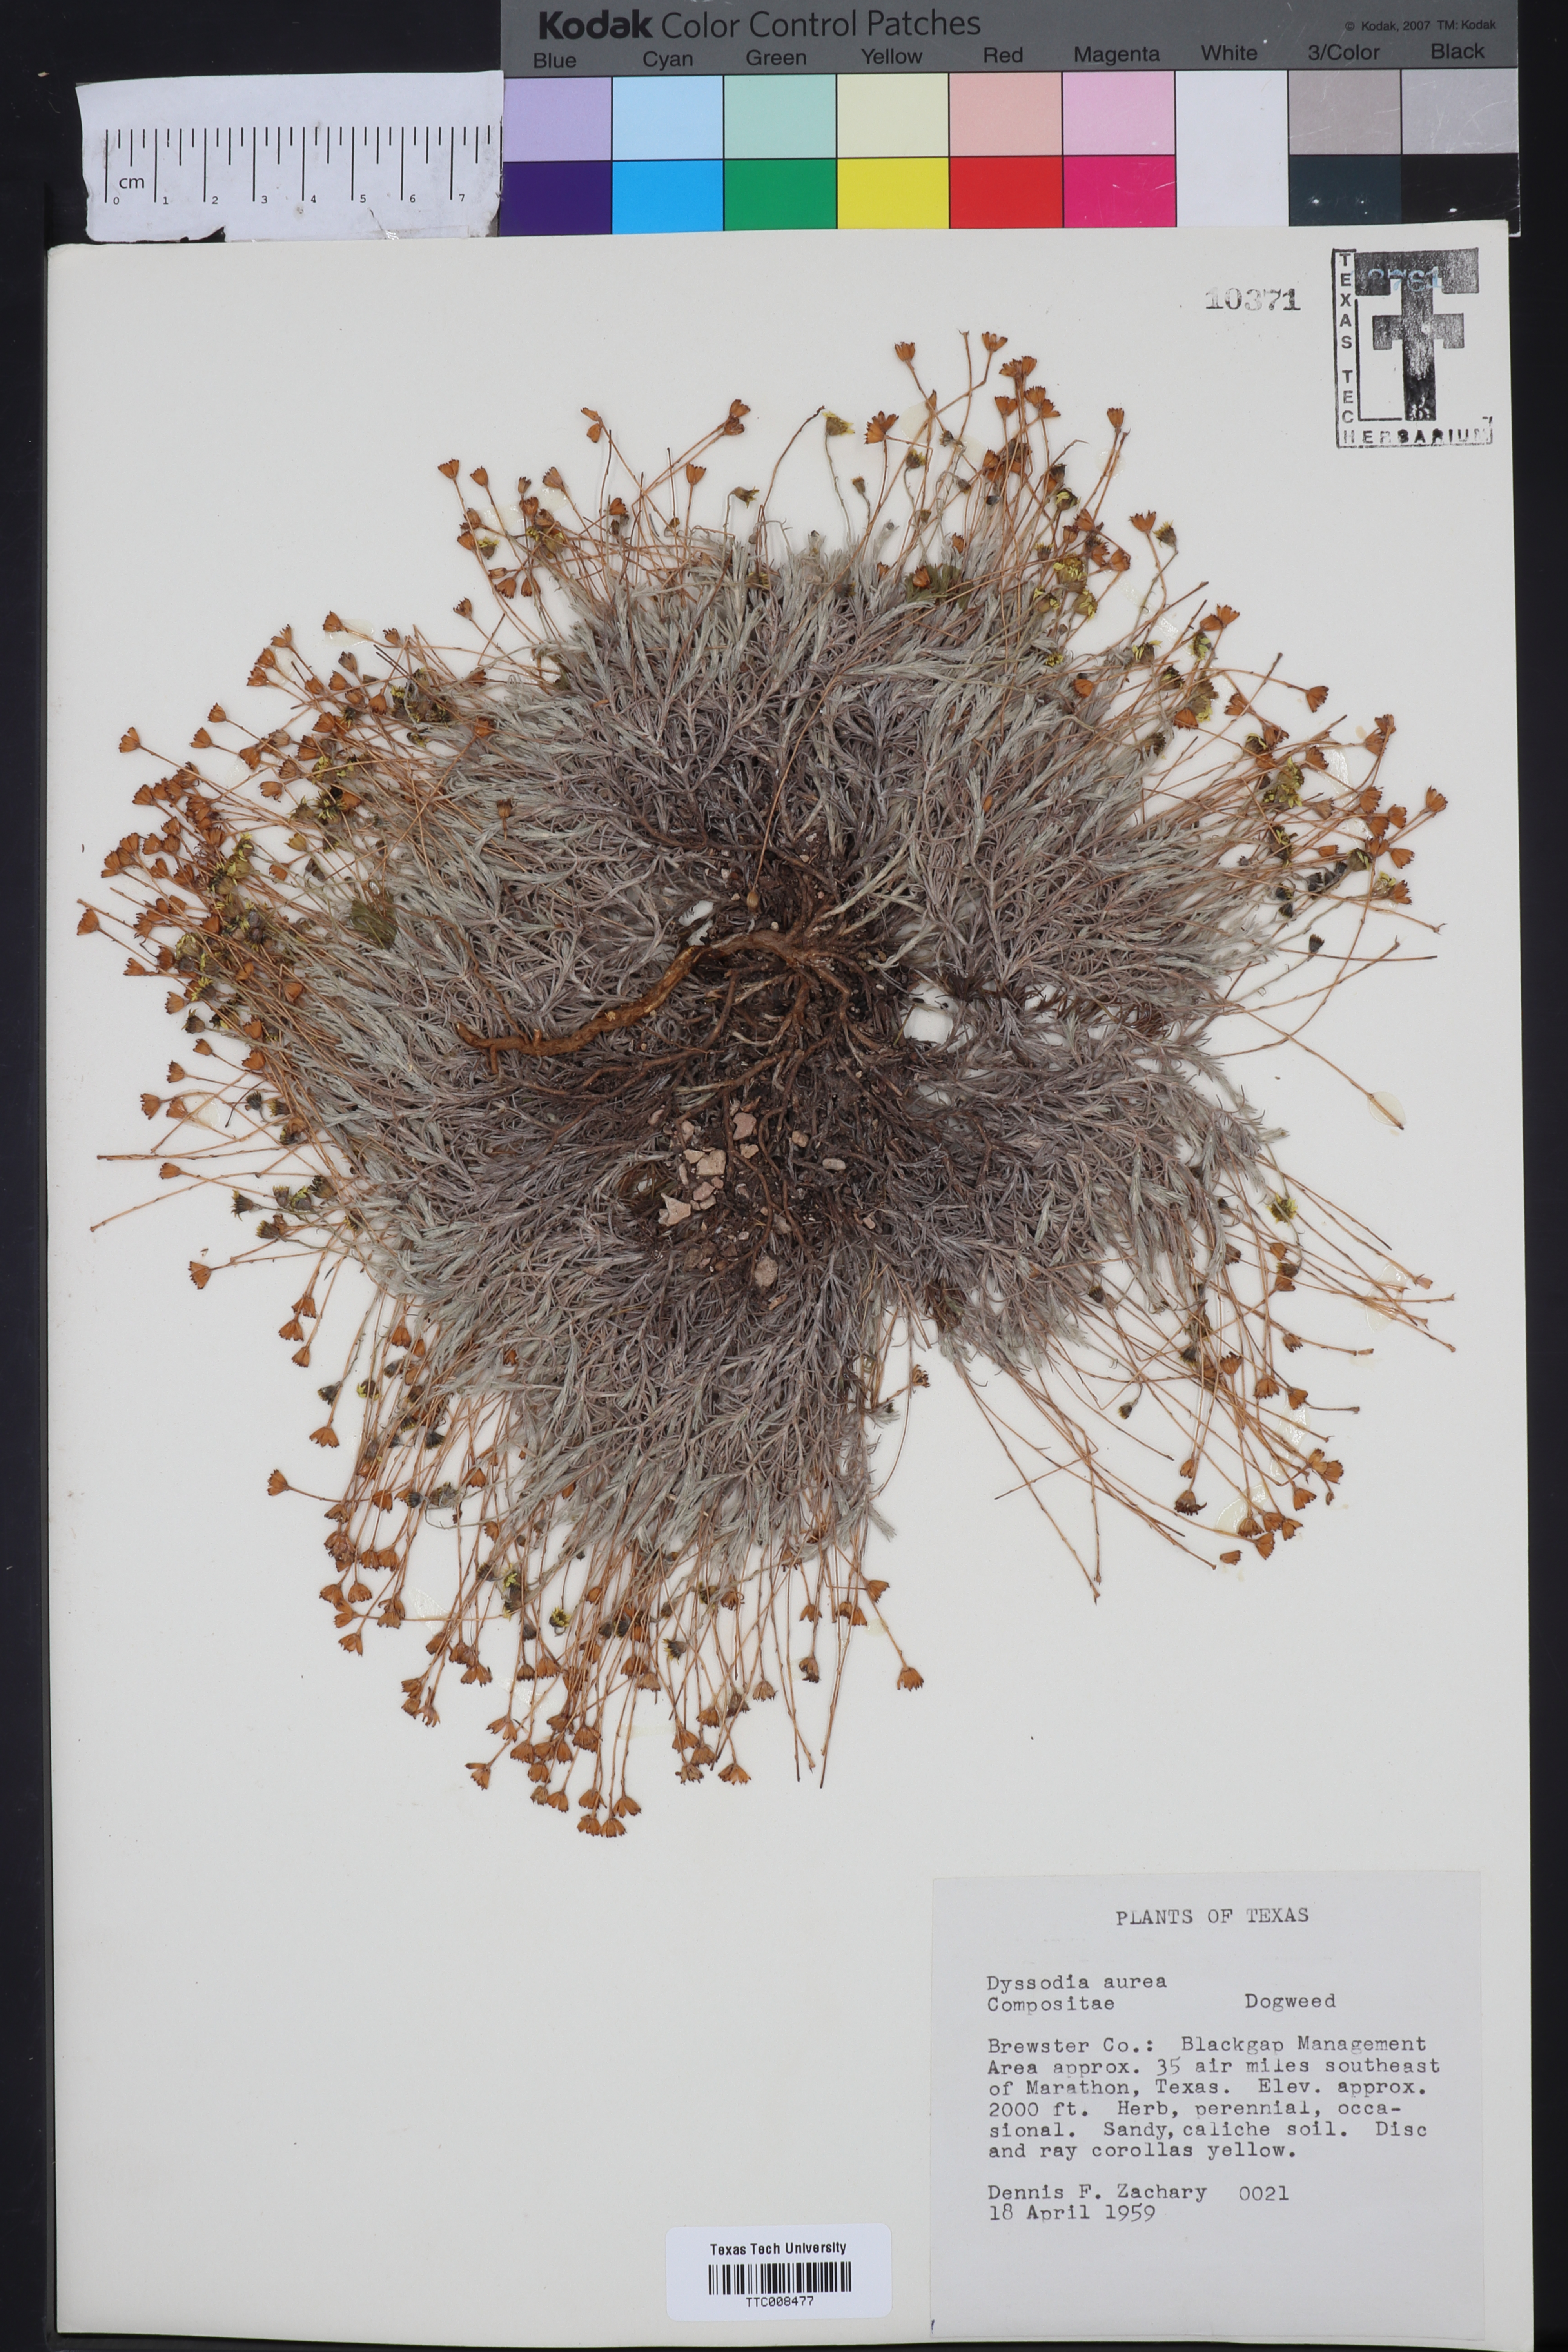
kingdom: Plantae
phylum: Tracheophyta
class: Magnoliopsida
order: Asterales
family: Asteraceae
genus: Thymophylla
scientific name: Thymophylla aurea
